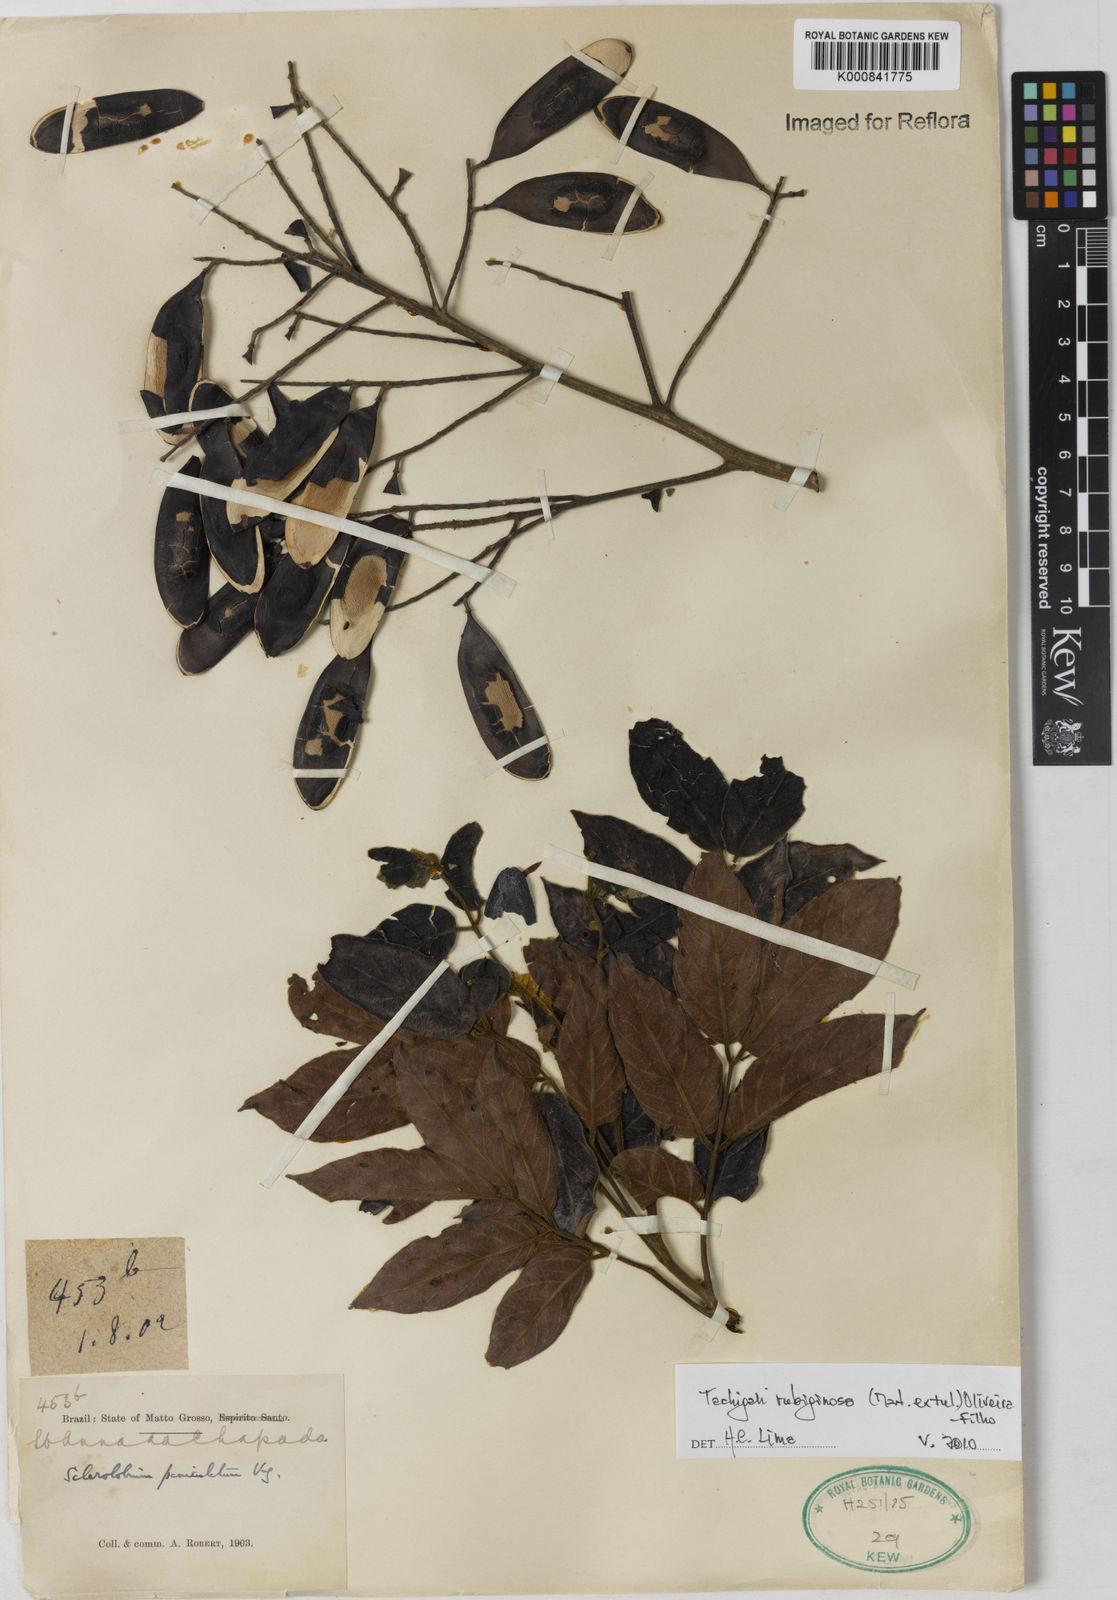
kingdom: Plantae
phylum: Tracheophyta
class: Magnoliopsida
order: Fabales
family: Fabaceae
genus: Tachigali
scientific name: Tachigali rubiginosa
